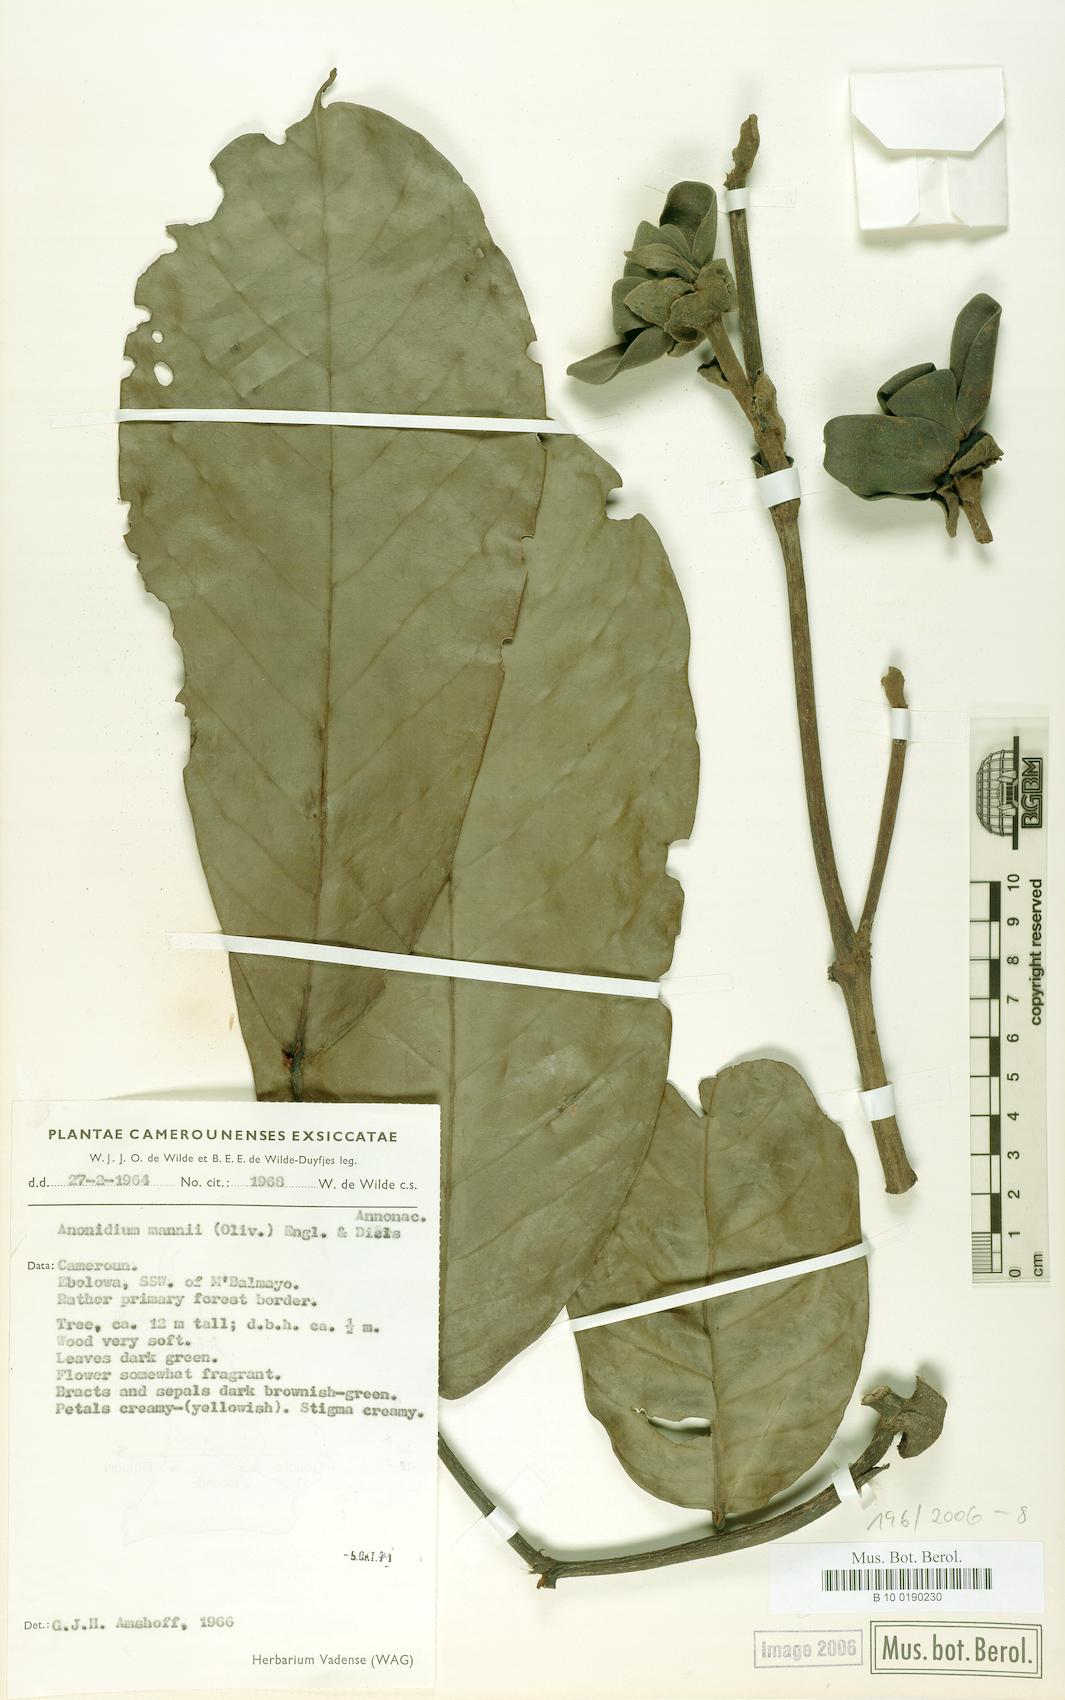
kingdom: Plantae
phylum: Tracheophyta
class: Magnoliopsida
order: Magnoliales
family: Annonaceae
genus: Anonidium
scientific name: Anonidium mannii
